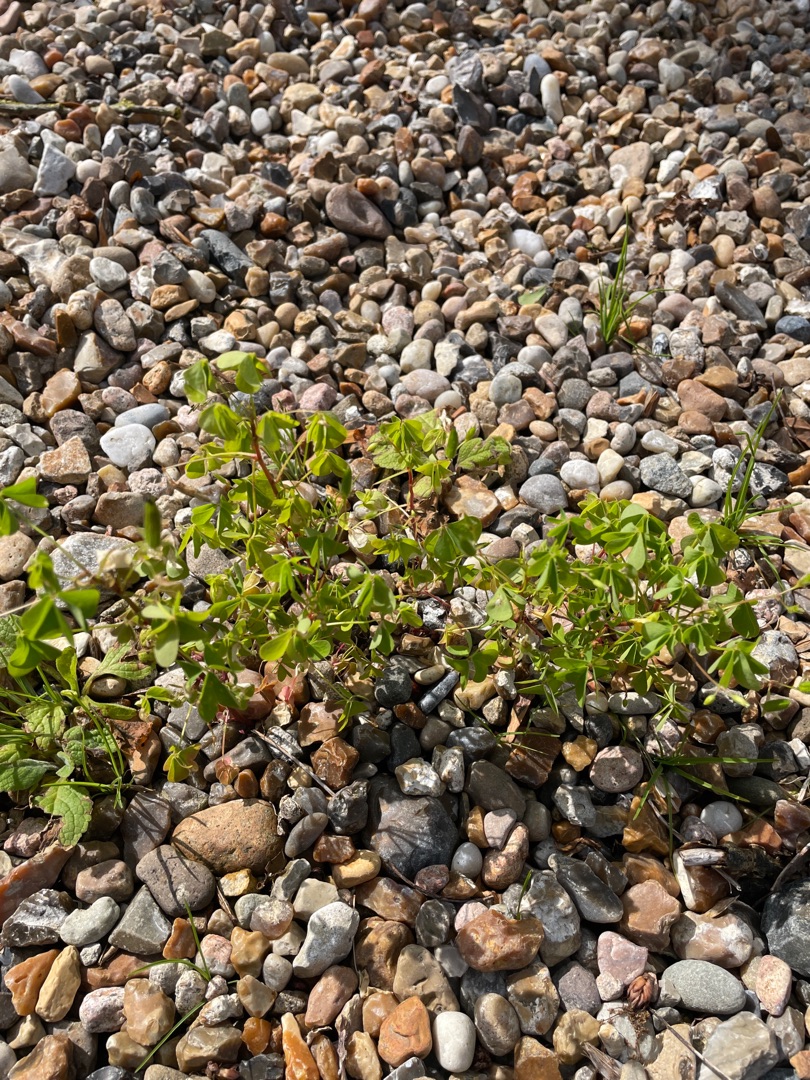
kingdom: Plantae
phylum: Tracheophyta
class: Magnoliopsida
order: Oxalidales
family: Oxalidaceae
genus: Oxalis
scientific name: Oxalis stricta
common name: Rank surkløver
